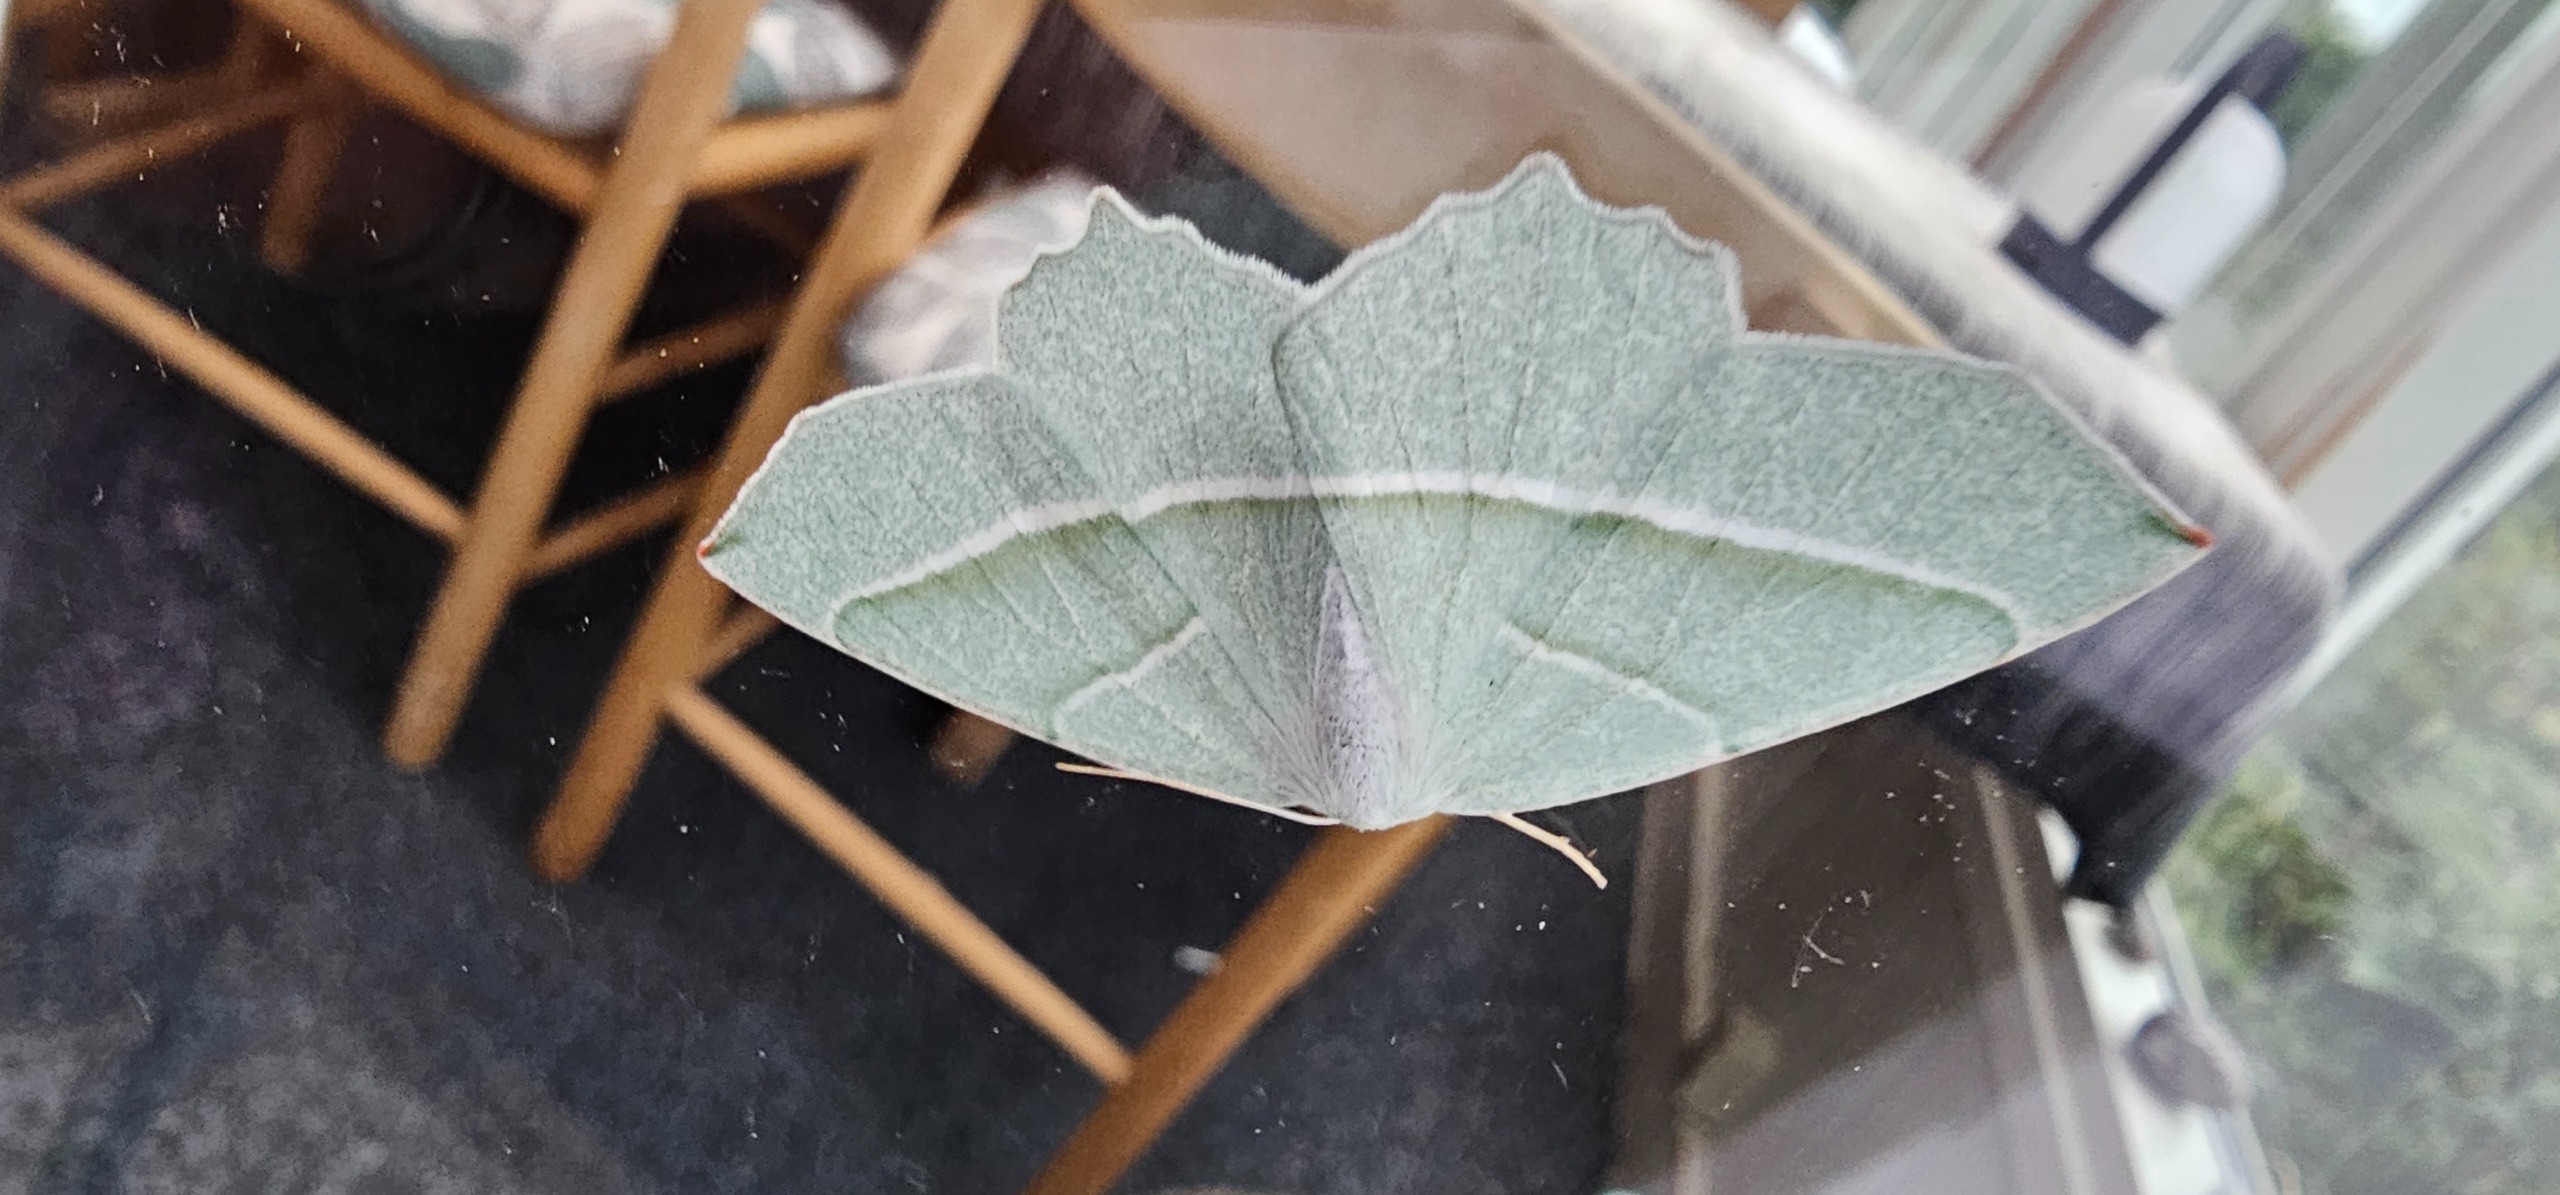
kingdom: Animalia
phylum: Arthropoda
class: Insecta
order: Lepidoptera
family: Geometridae
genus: Campaea
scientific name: Campaea margaritaria
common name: Perlemåler
